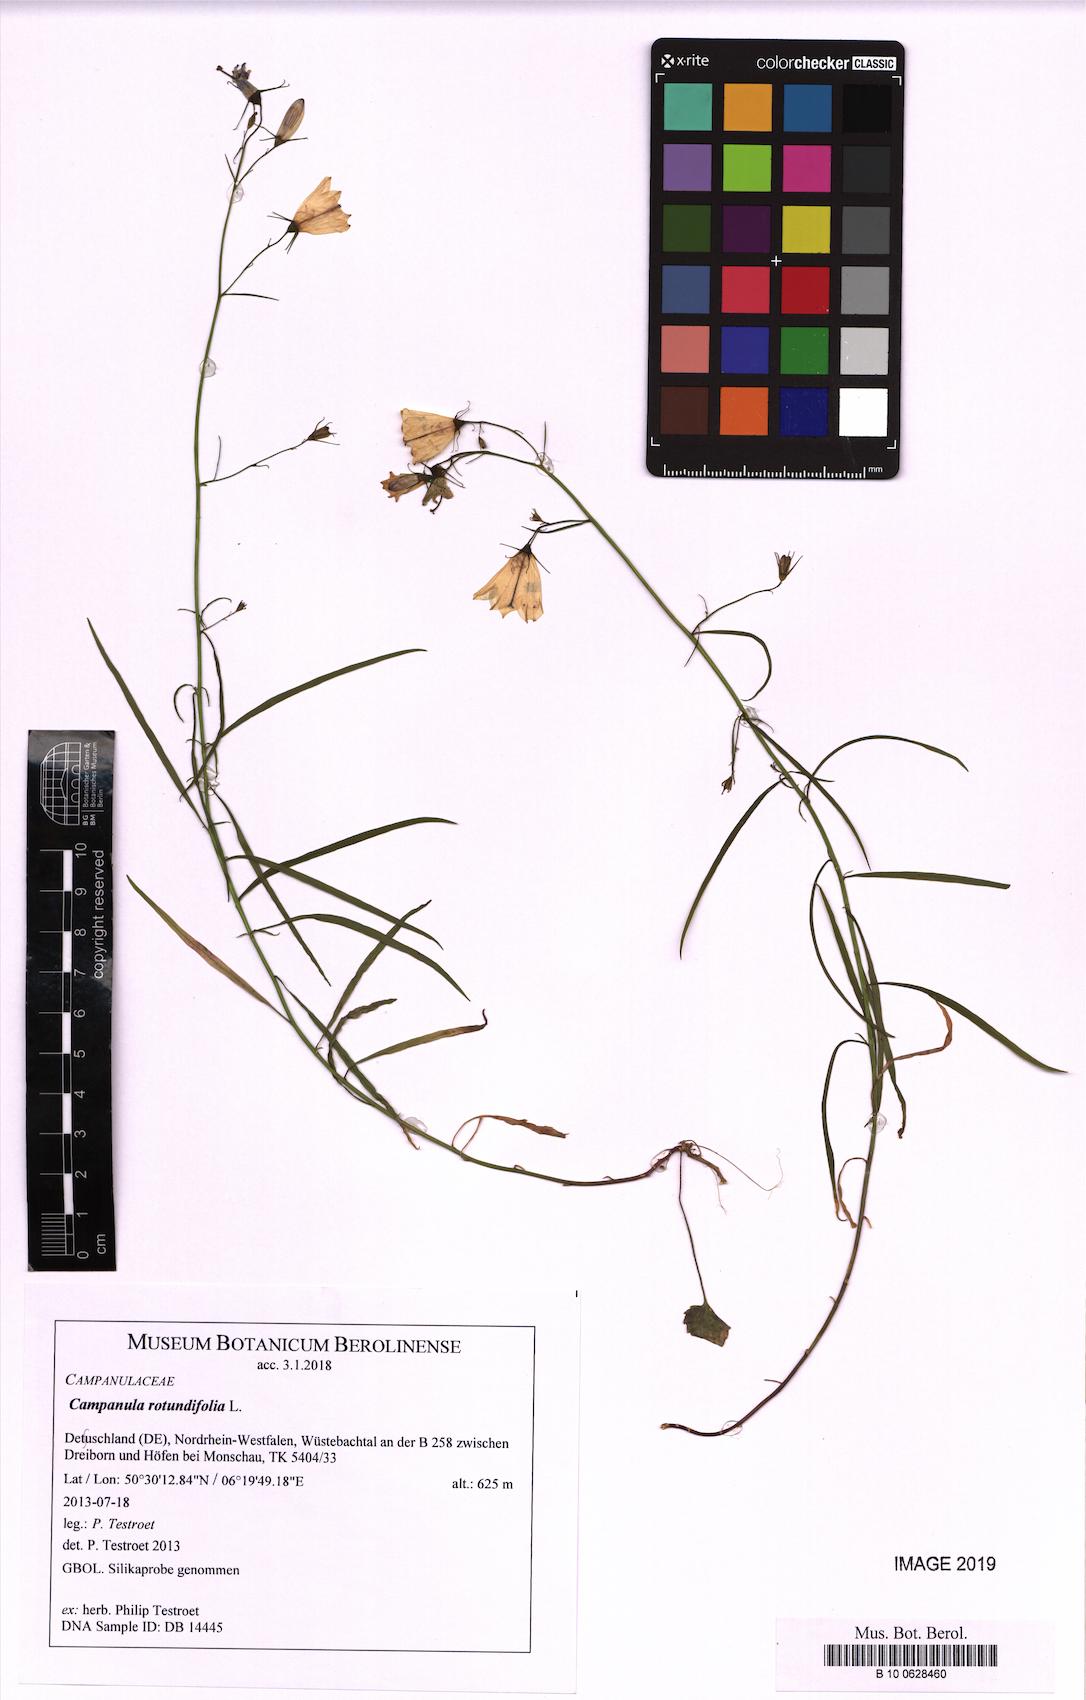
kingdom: Plantae
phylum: Tracheophyta
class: Magnoliopsida
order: Asterales
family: Campanulaceae
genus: Campanula
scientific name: Campanula rotundifolia
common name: Harebell
